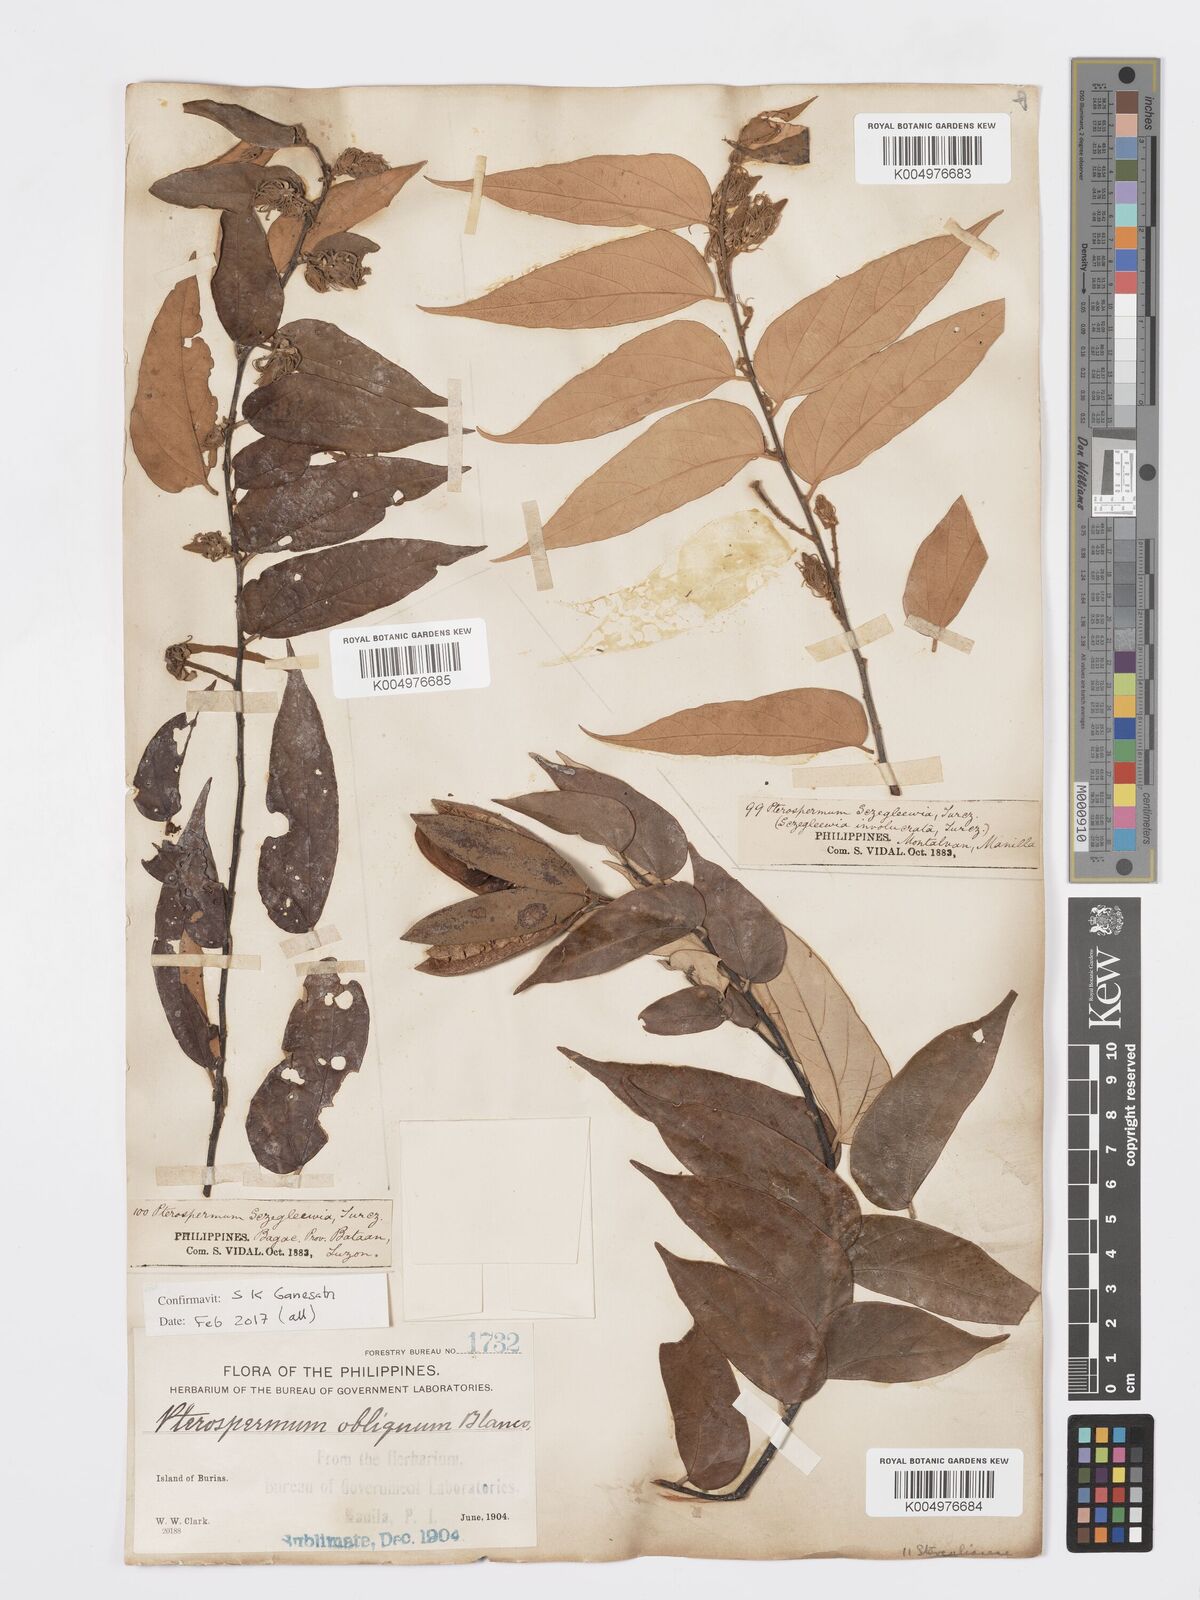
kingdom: Plantae
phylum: Tracheophyta
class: Magnoliopsida
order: Malvales
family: Malvaceae
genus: Pterospermum
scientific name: Pterospermum obliquum
